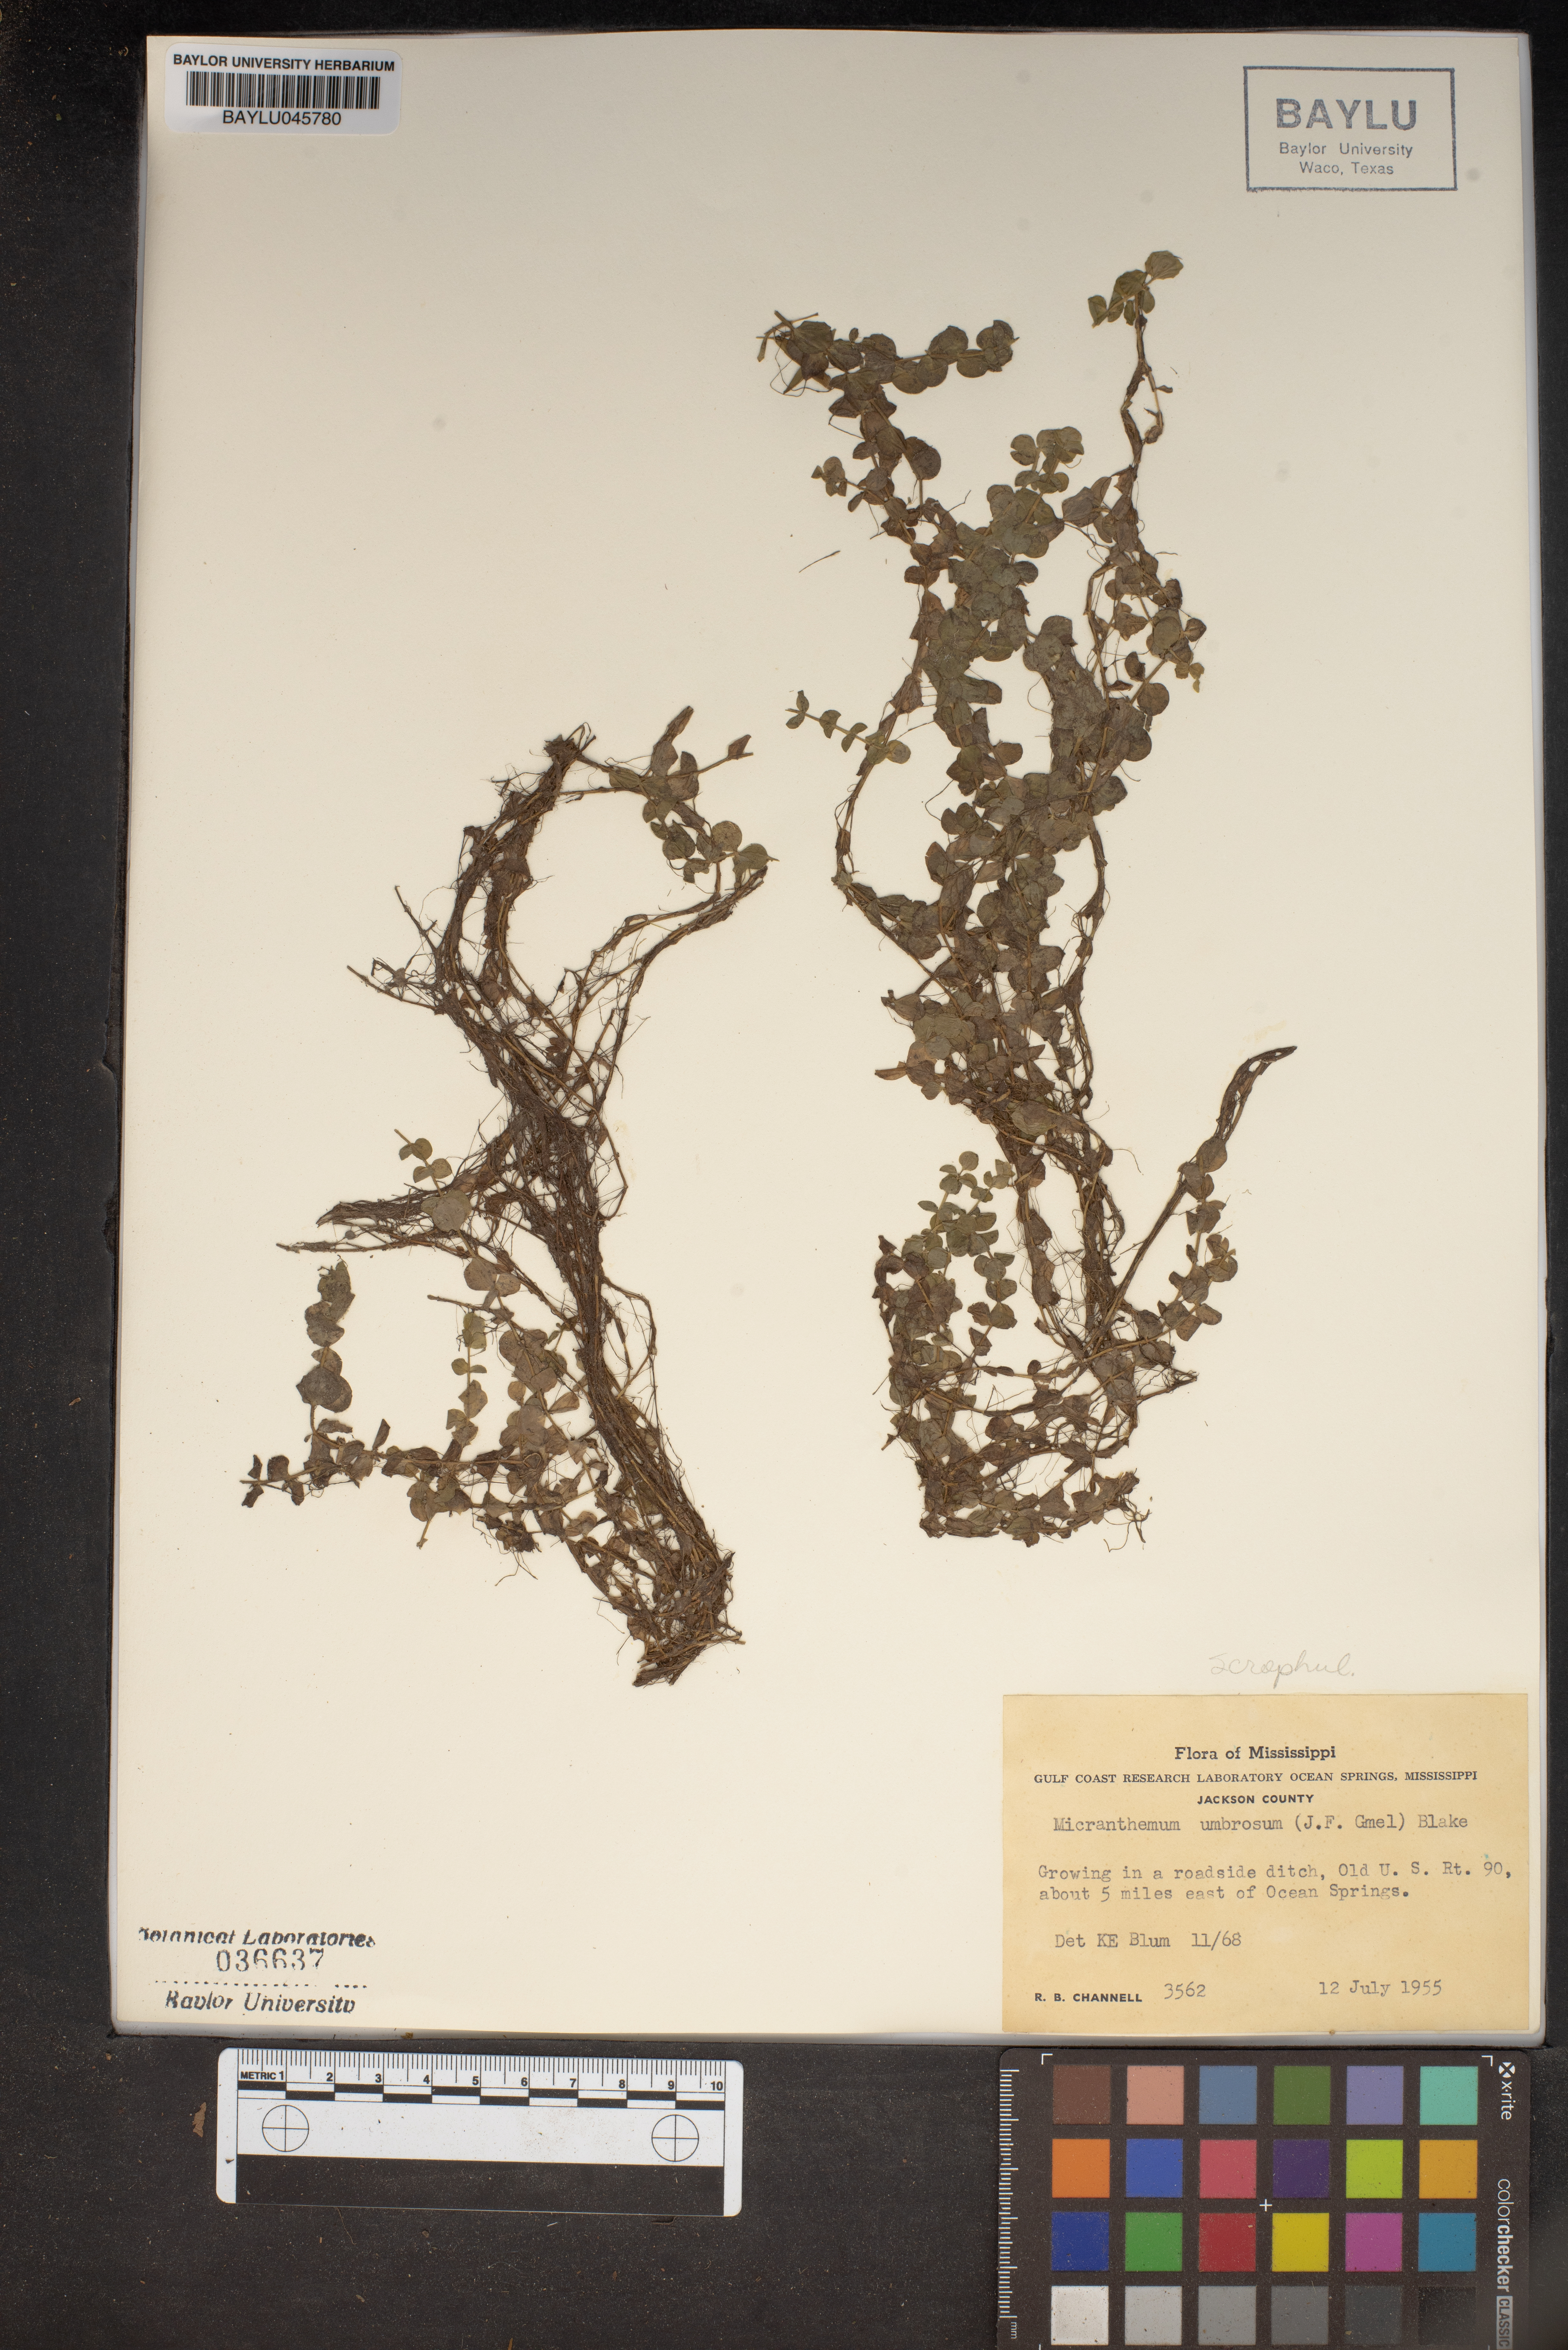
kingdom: Plantae
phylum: Tracheophyta
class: Magnoliopsida
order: Lamiales
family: Linderniaceae
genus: Micranthemum
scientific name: Micranthemum umbrosum
